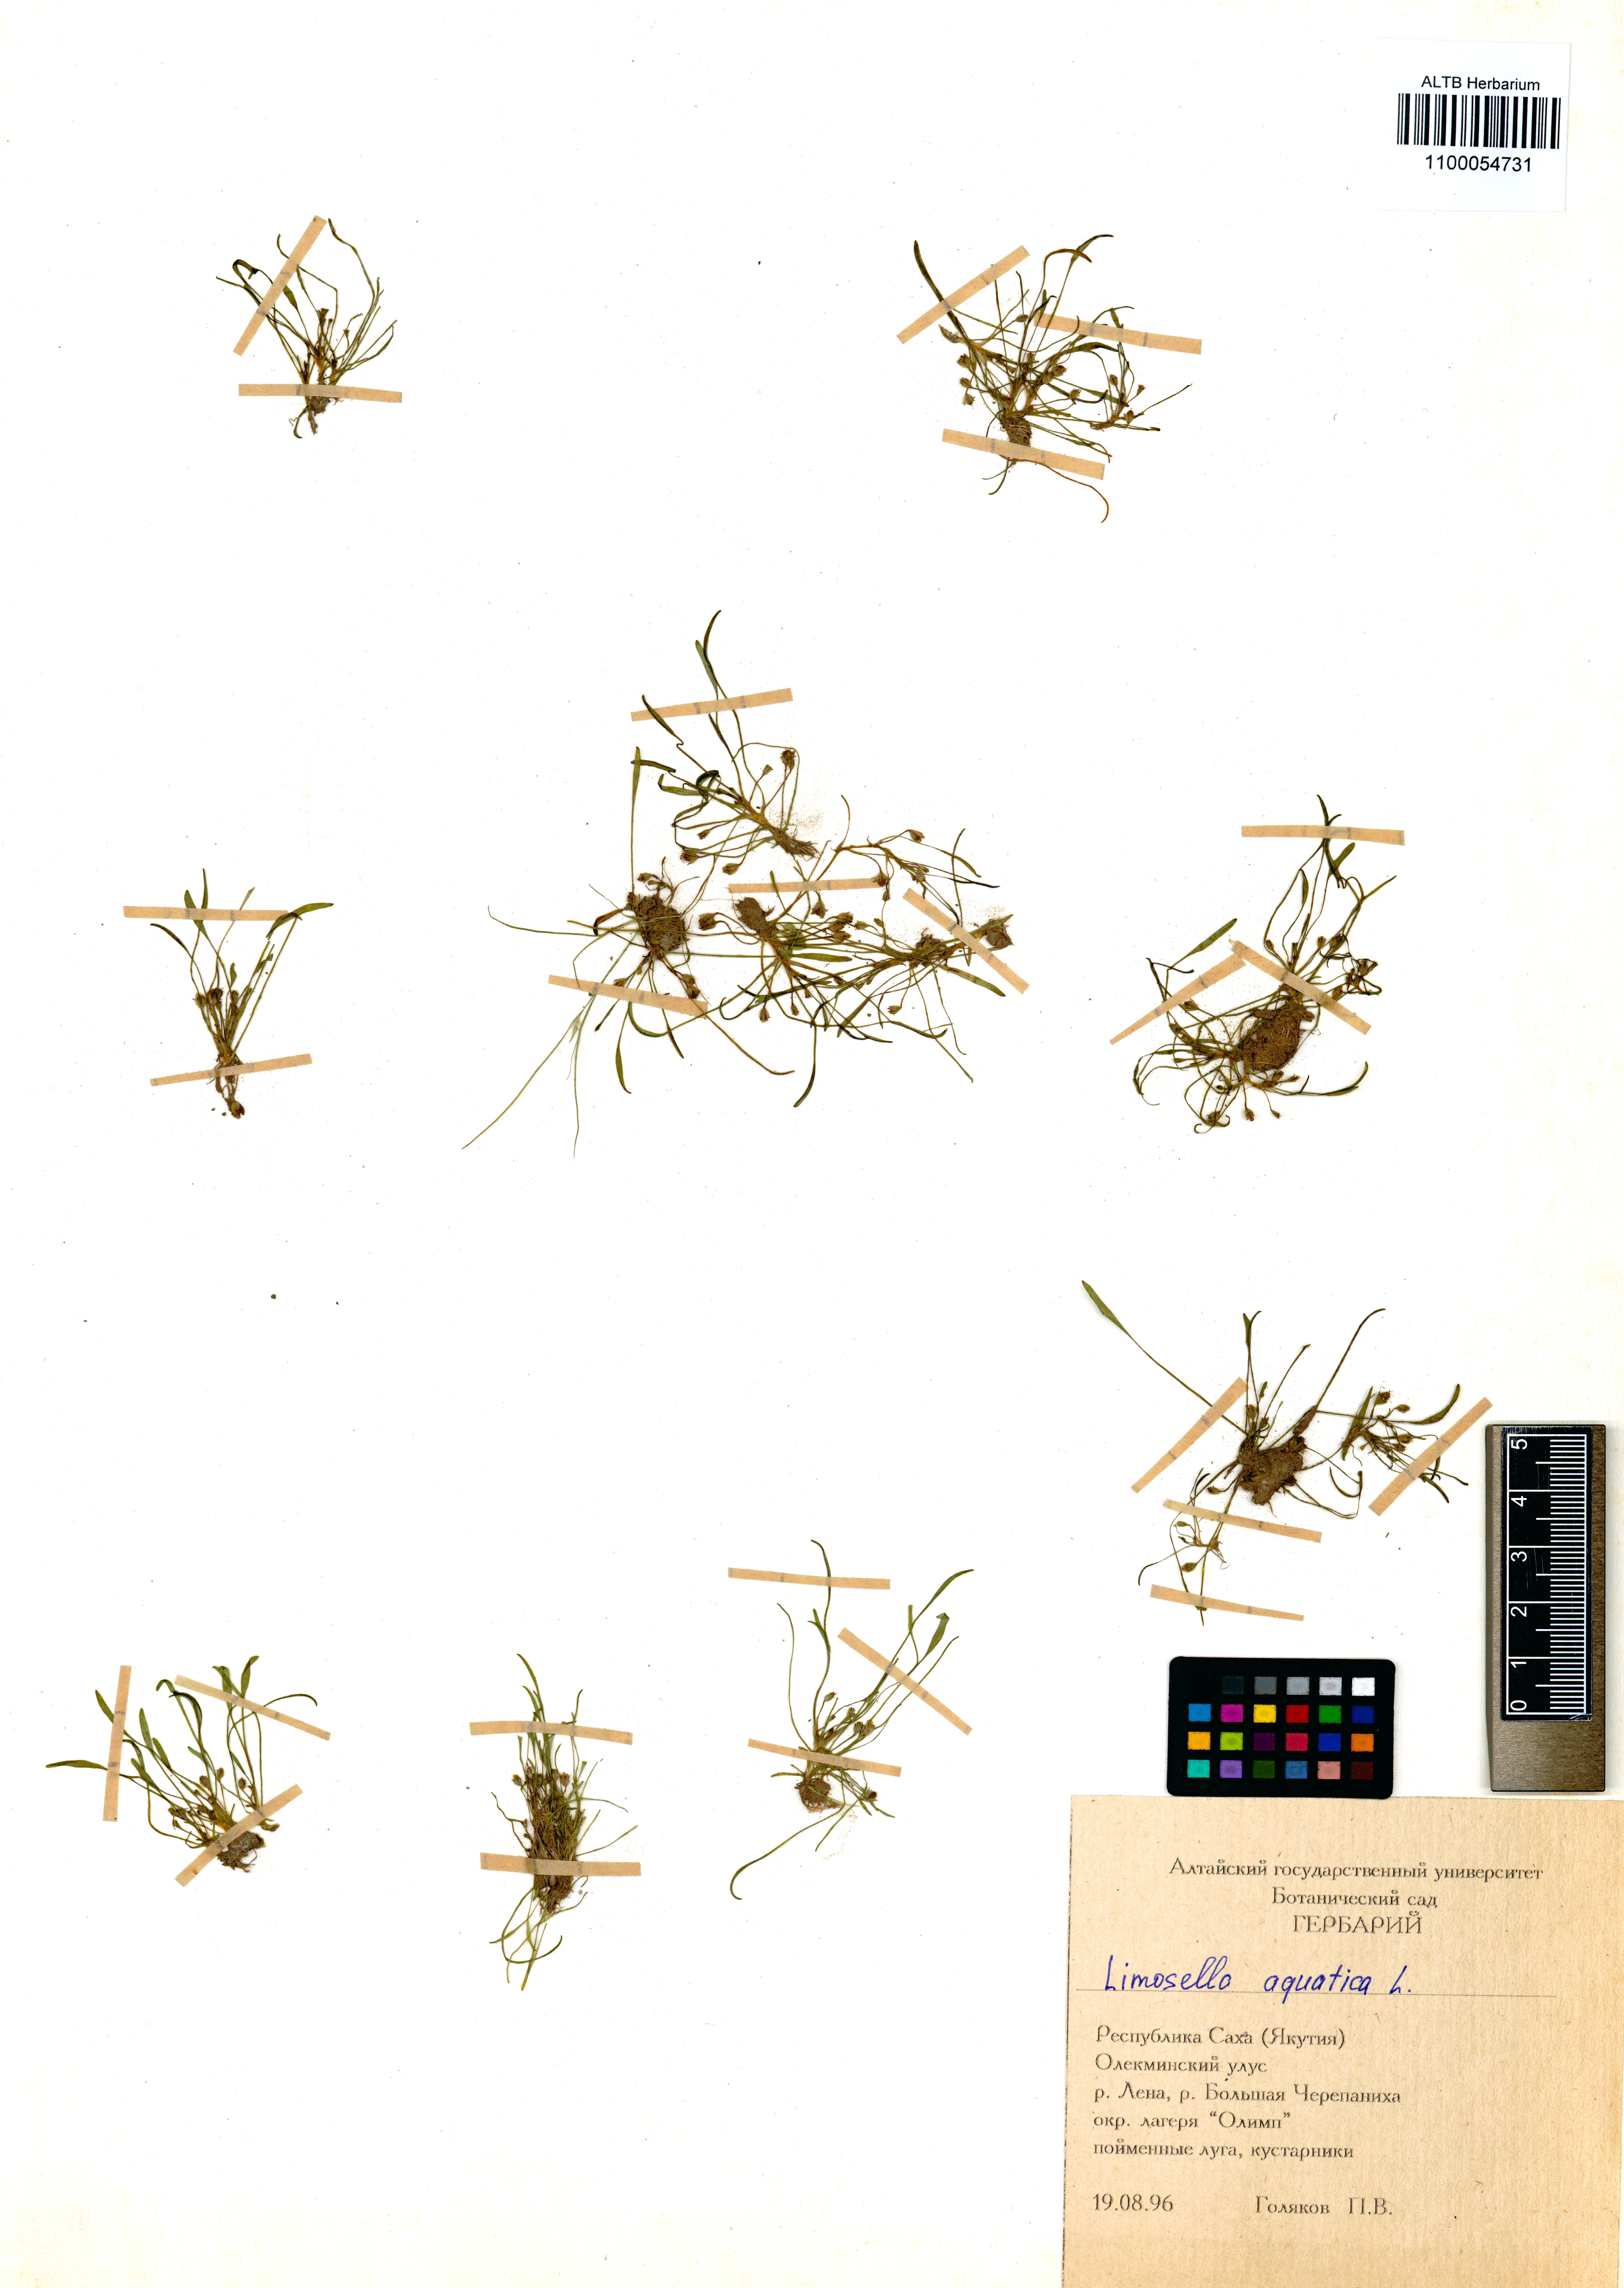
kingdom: Plantae
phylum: Tracheophyta
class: Magnoliopsida
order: Lamiales
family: Scrophulariaceae
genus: Limosella
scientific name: Limosella aquatica
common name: Mudwort
